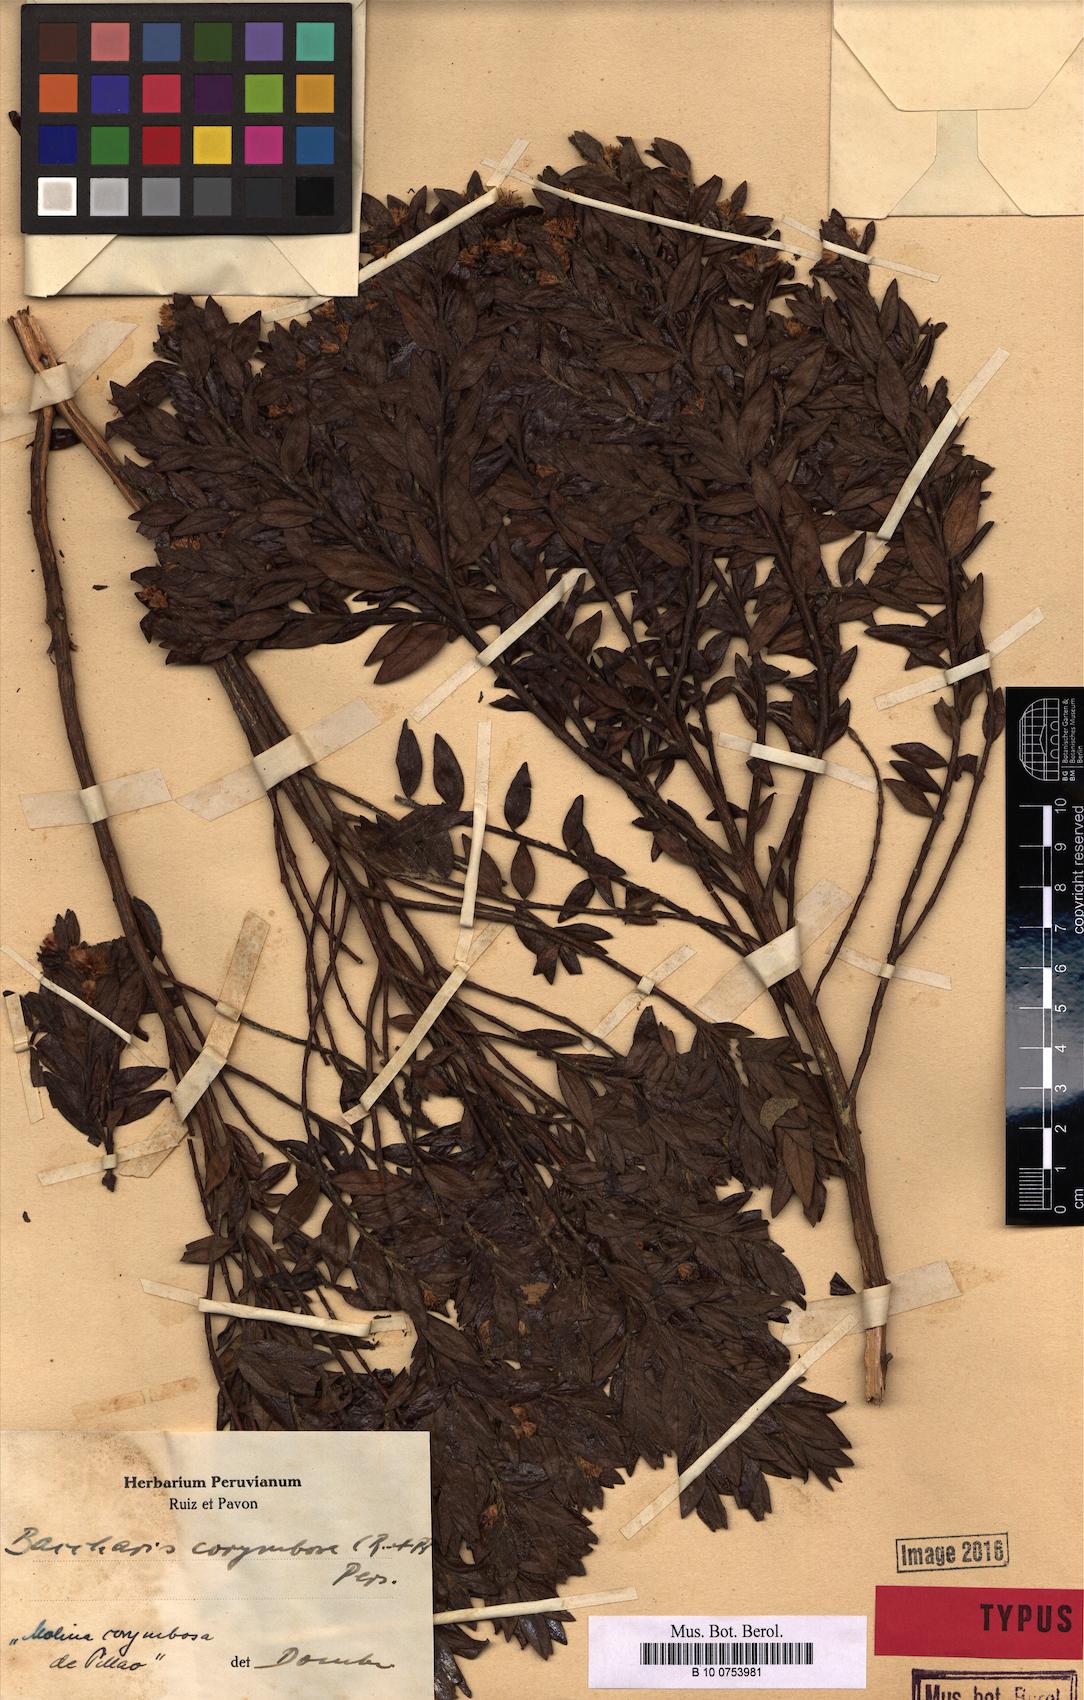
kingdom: Plantae
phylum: Tracheophyta
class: Magnoliopsida
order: Asterales
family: Asteraceae
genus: Baccharis
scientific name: Baccharis corymbosa
